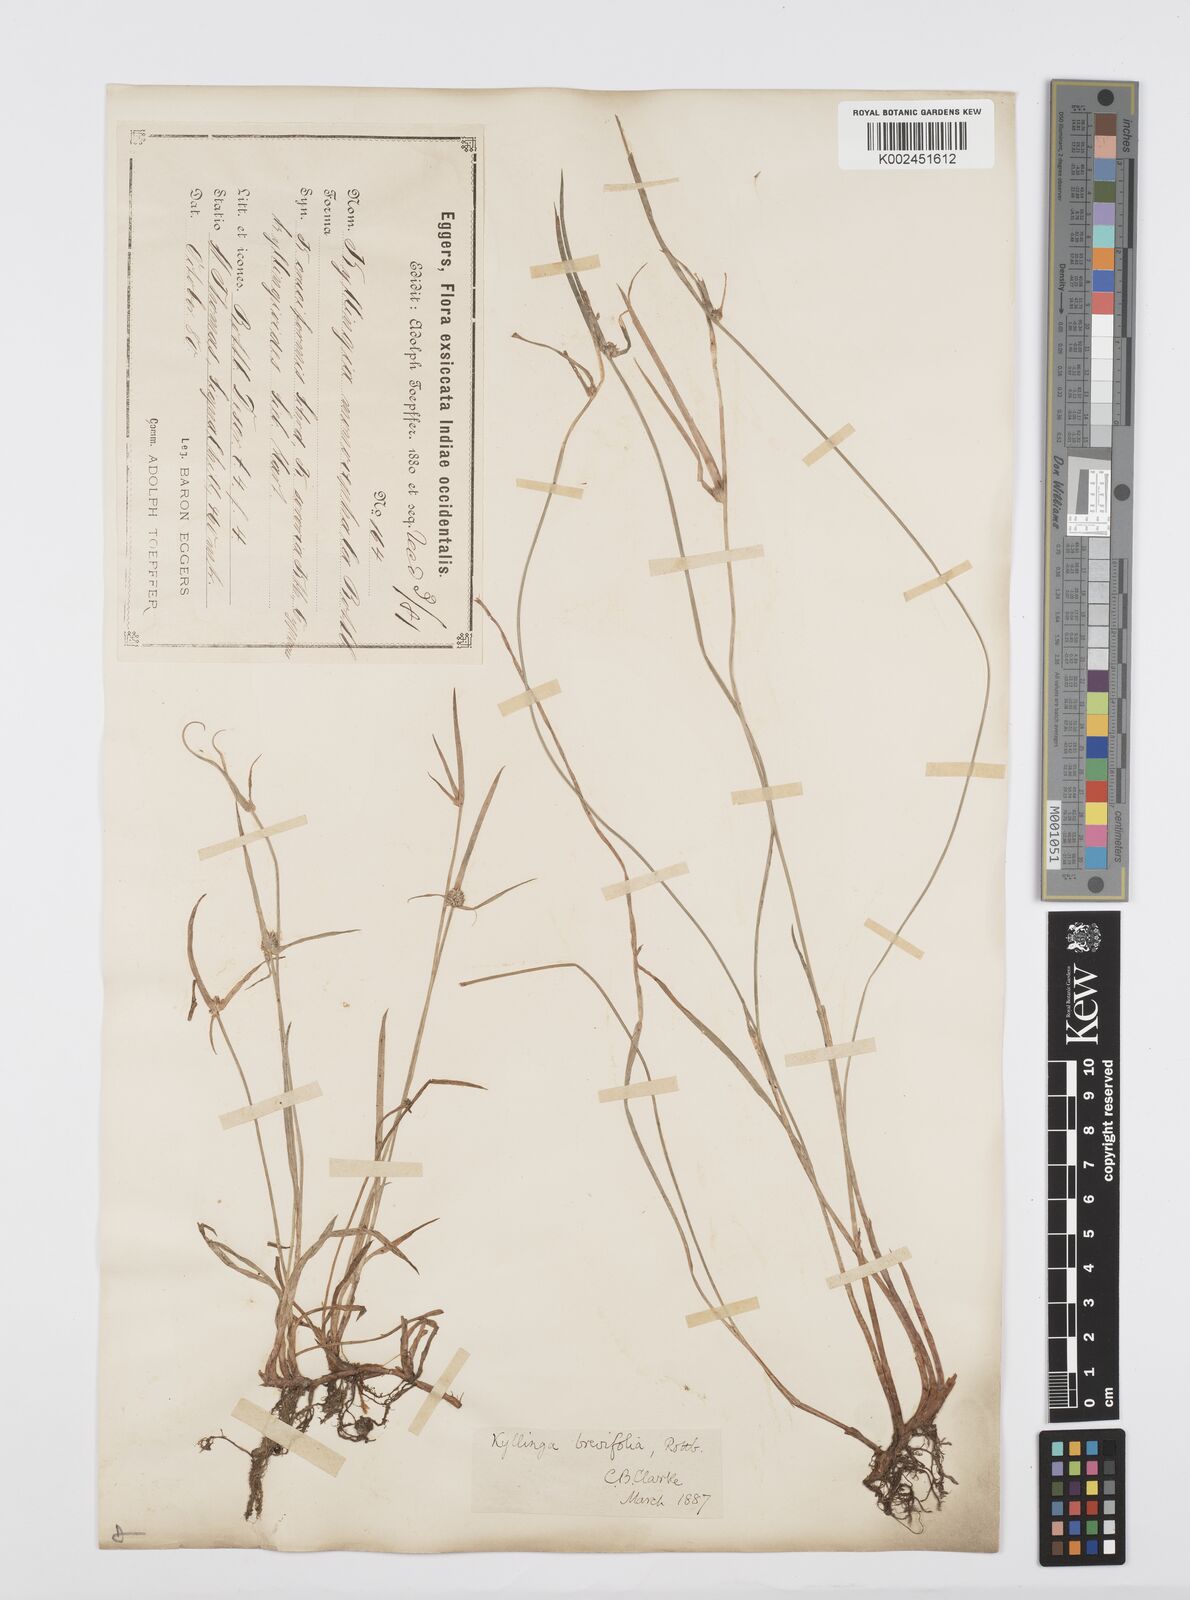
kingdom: Plantae
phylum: Tracheophyta
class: Liliopsida
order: Poales
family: Cyperaceae
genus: Cyperus
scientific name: Cyperus brevifolius
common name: Globe kyllinga
